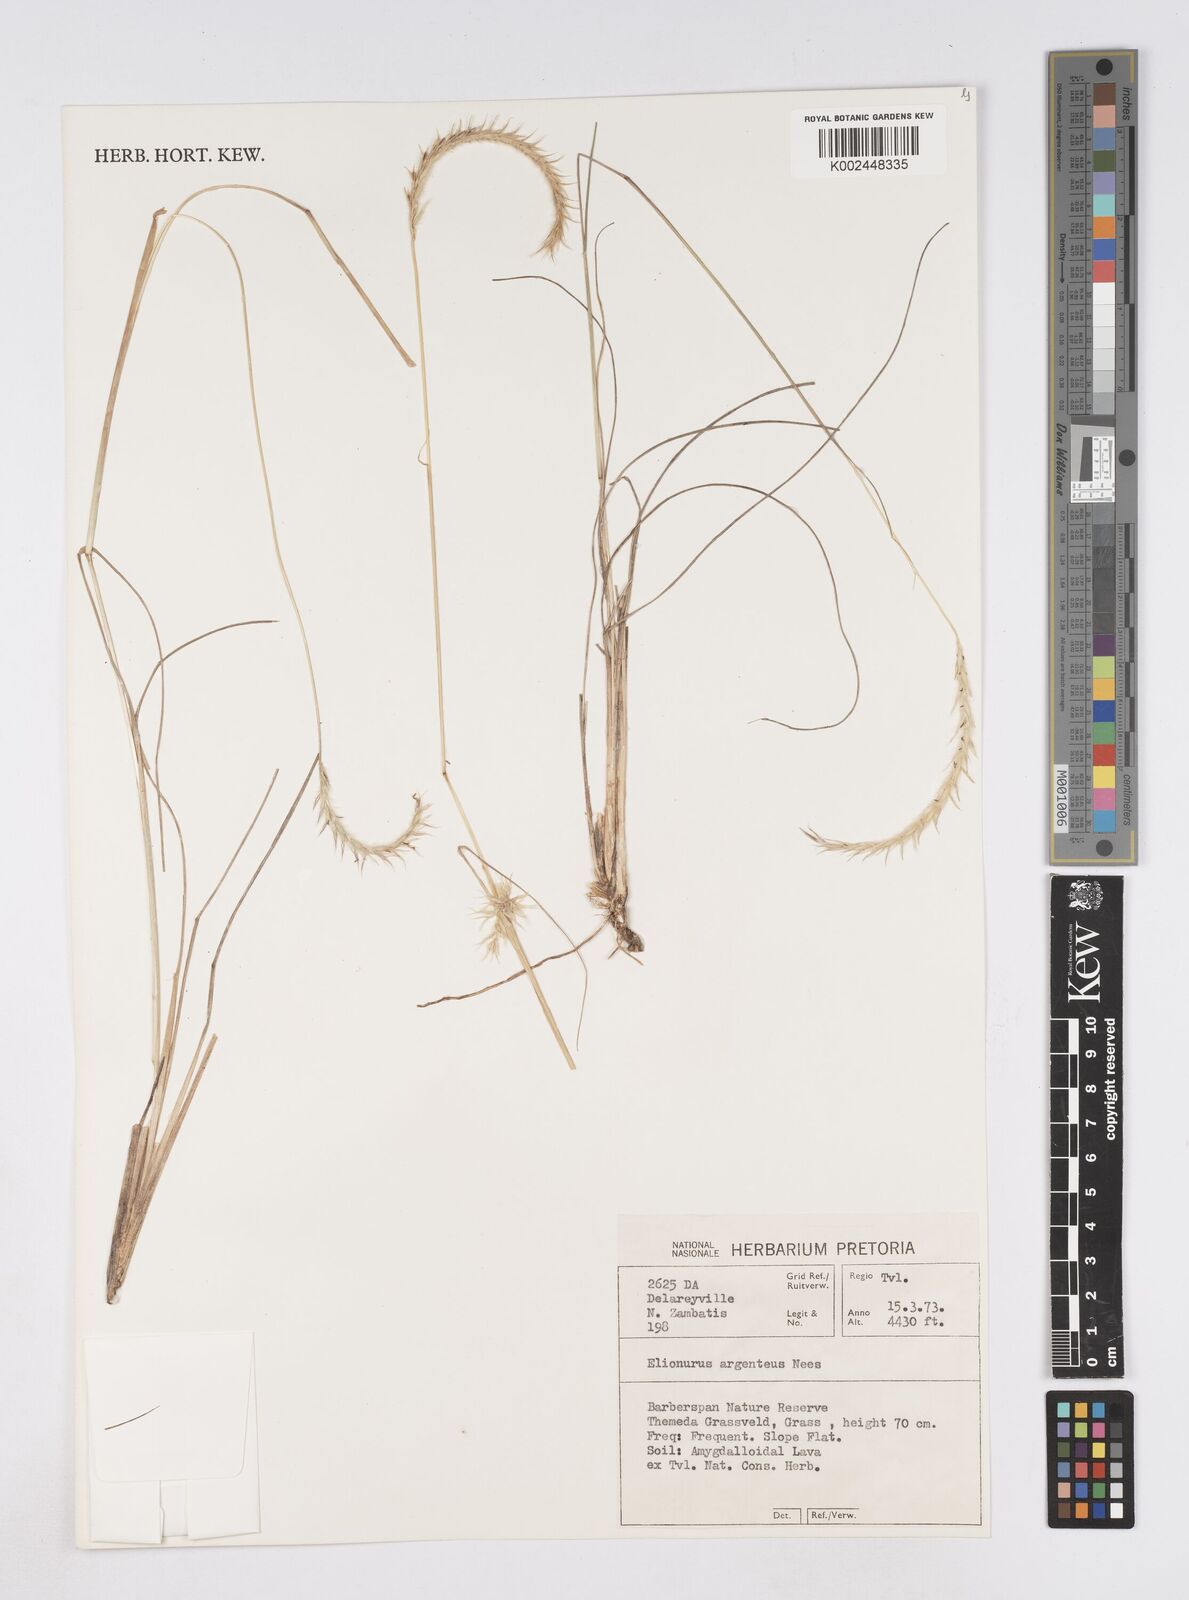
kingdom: Plantae
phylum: Tracheophyta
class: Liliopsida
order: Poales
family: Poaceae
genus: Elionurus
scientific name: Elionurus muticus
